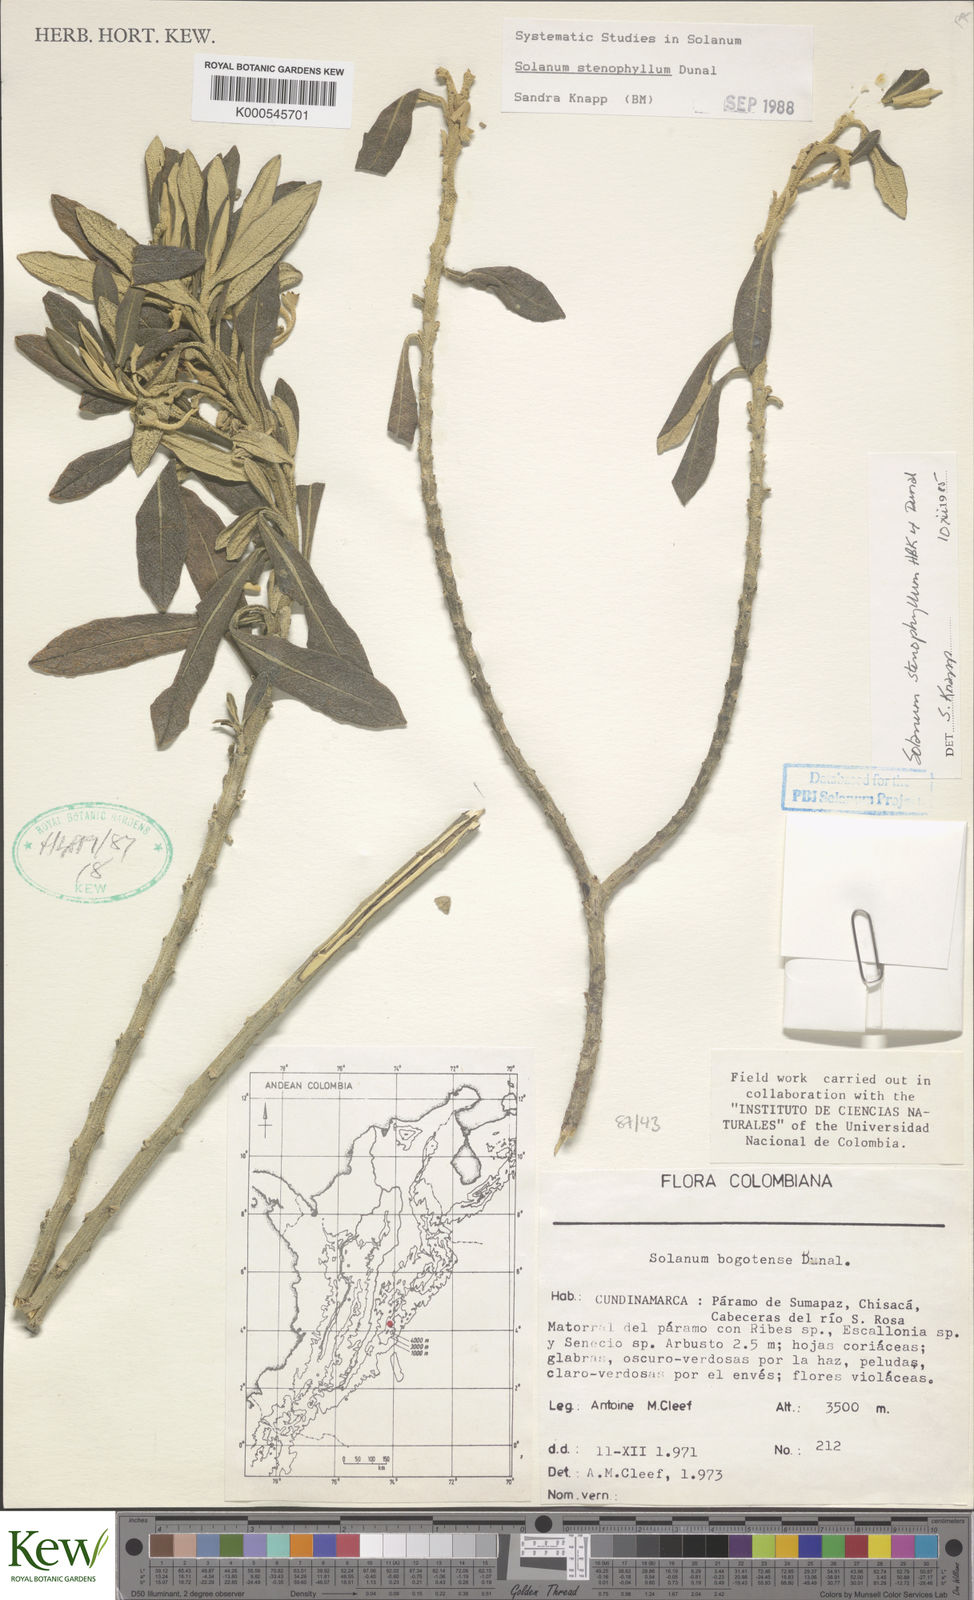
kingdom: Plantae
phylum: Tracheophyta
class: Magnoliopsida
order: Solanales
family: Solanaceae
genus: Solanum
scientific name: Solanum stenophyllum
